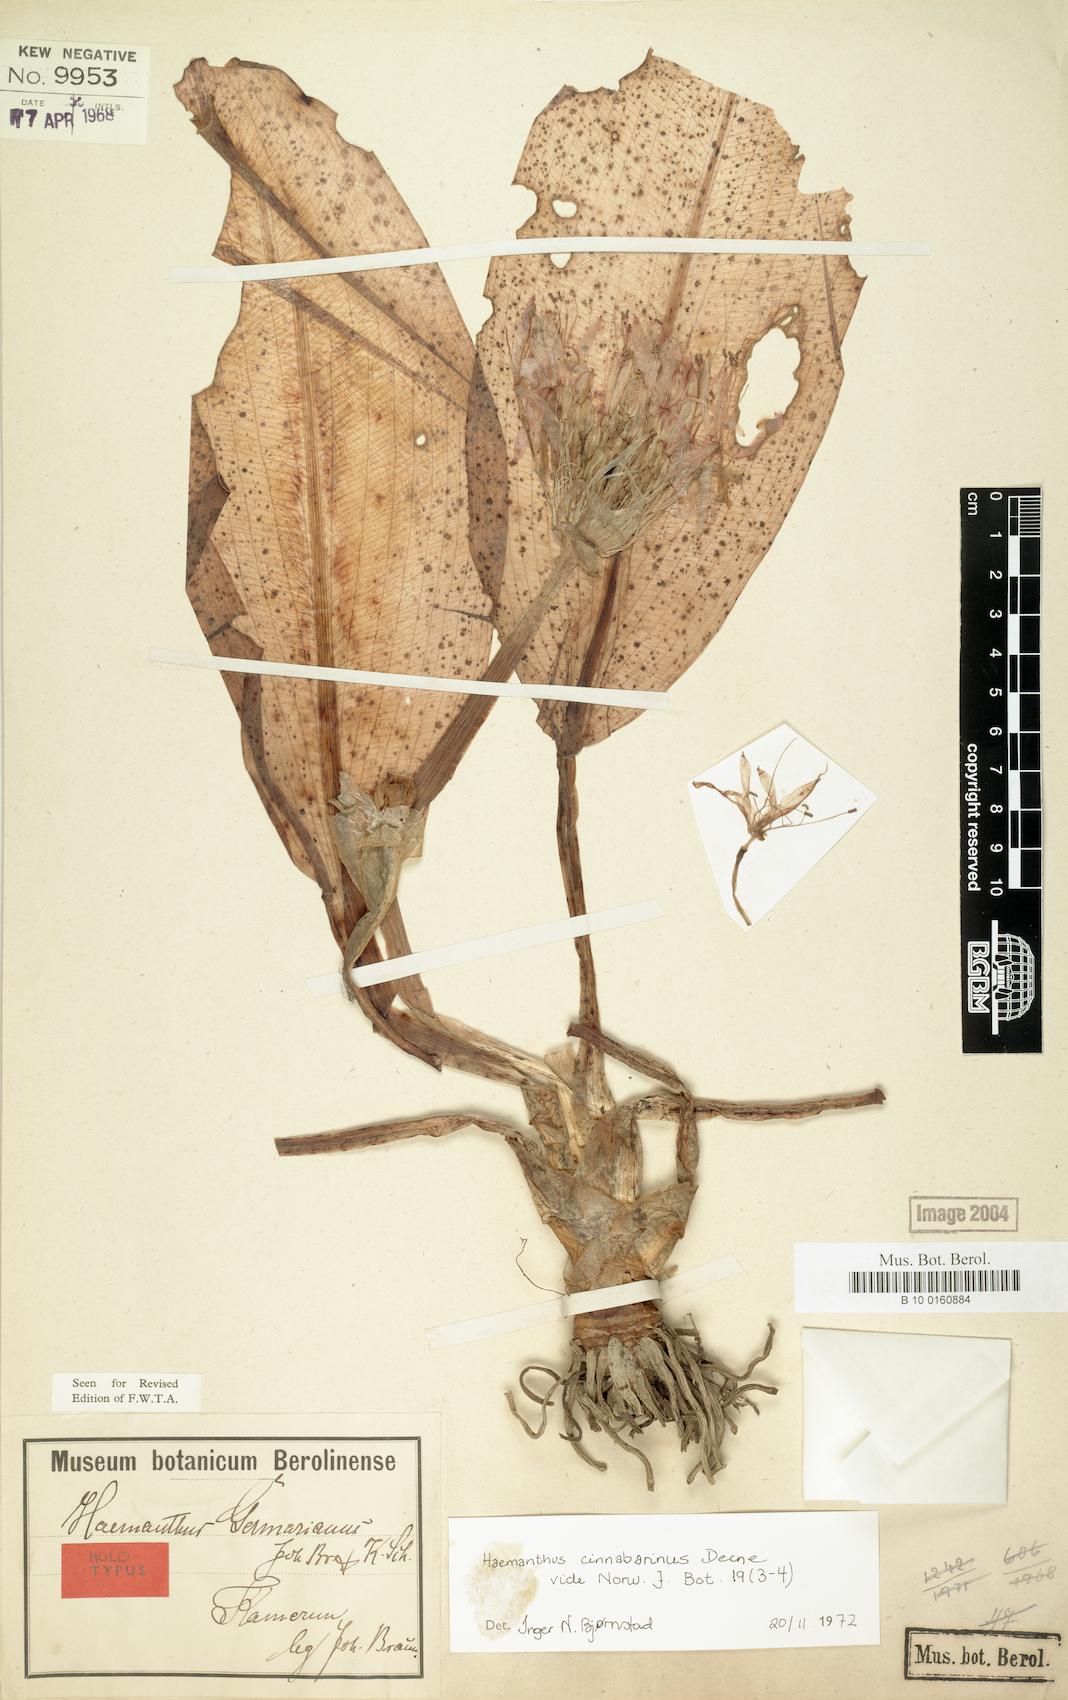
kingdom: Plantae
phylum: Tracheophyta
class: Liliopsida
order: Asparagales
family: Amaryllidaceae
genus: Scadoxus
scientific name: Scadoxus cinnabarinus
